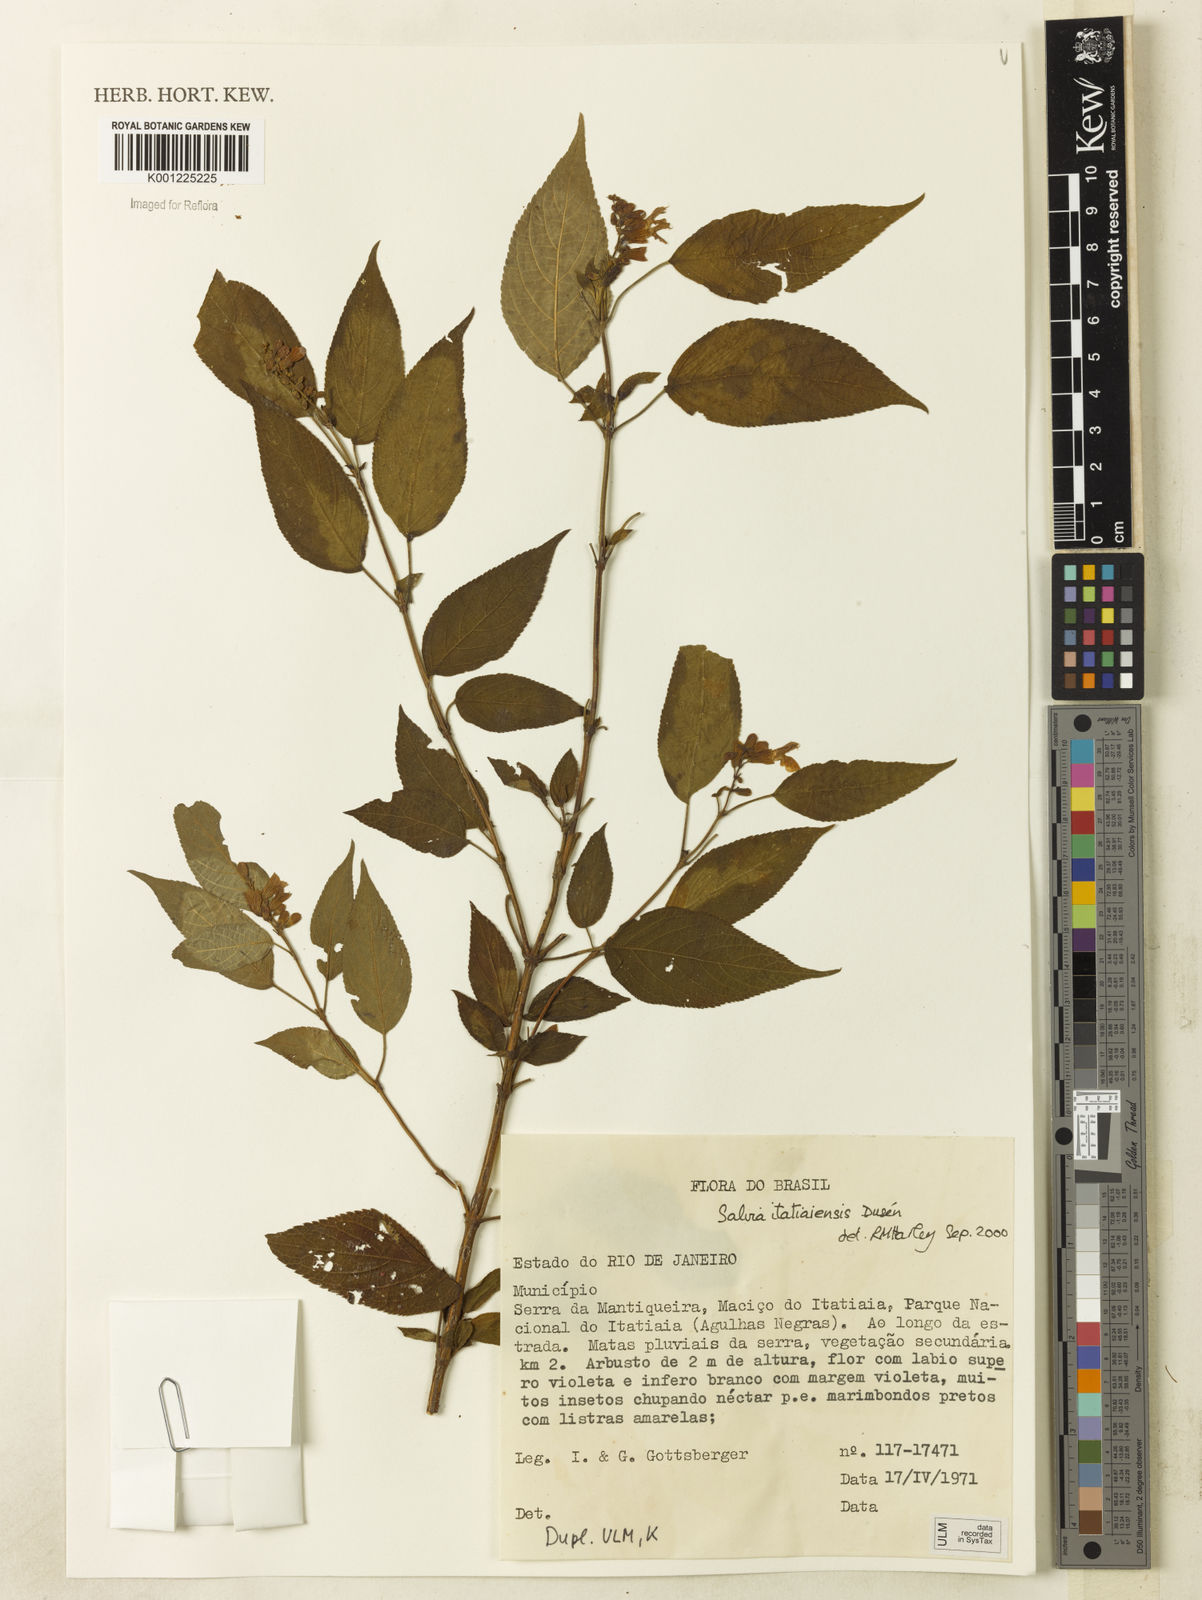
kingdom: Plantae
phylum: Tracheophyta
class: Magnoliopsida
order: Lamiales
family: Lamiaceae
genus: Salvia
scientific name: Salvia
